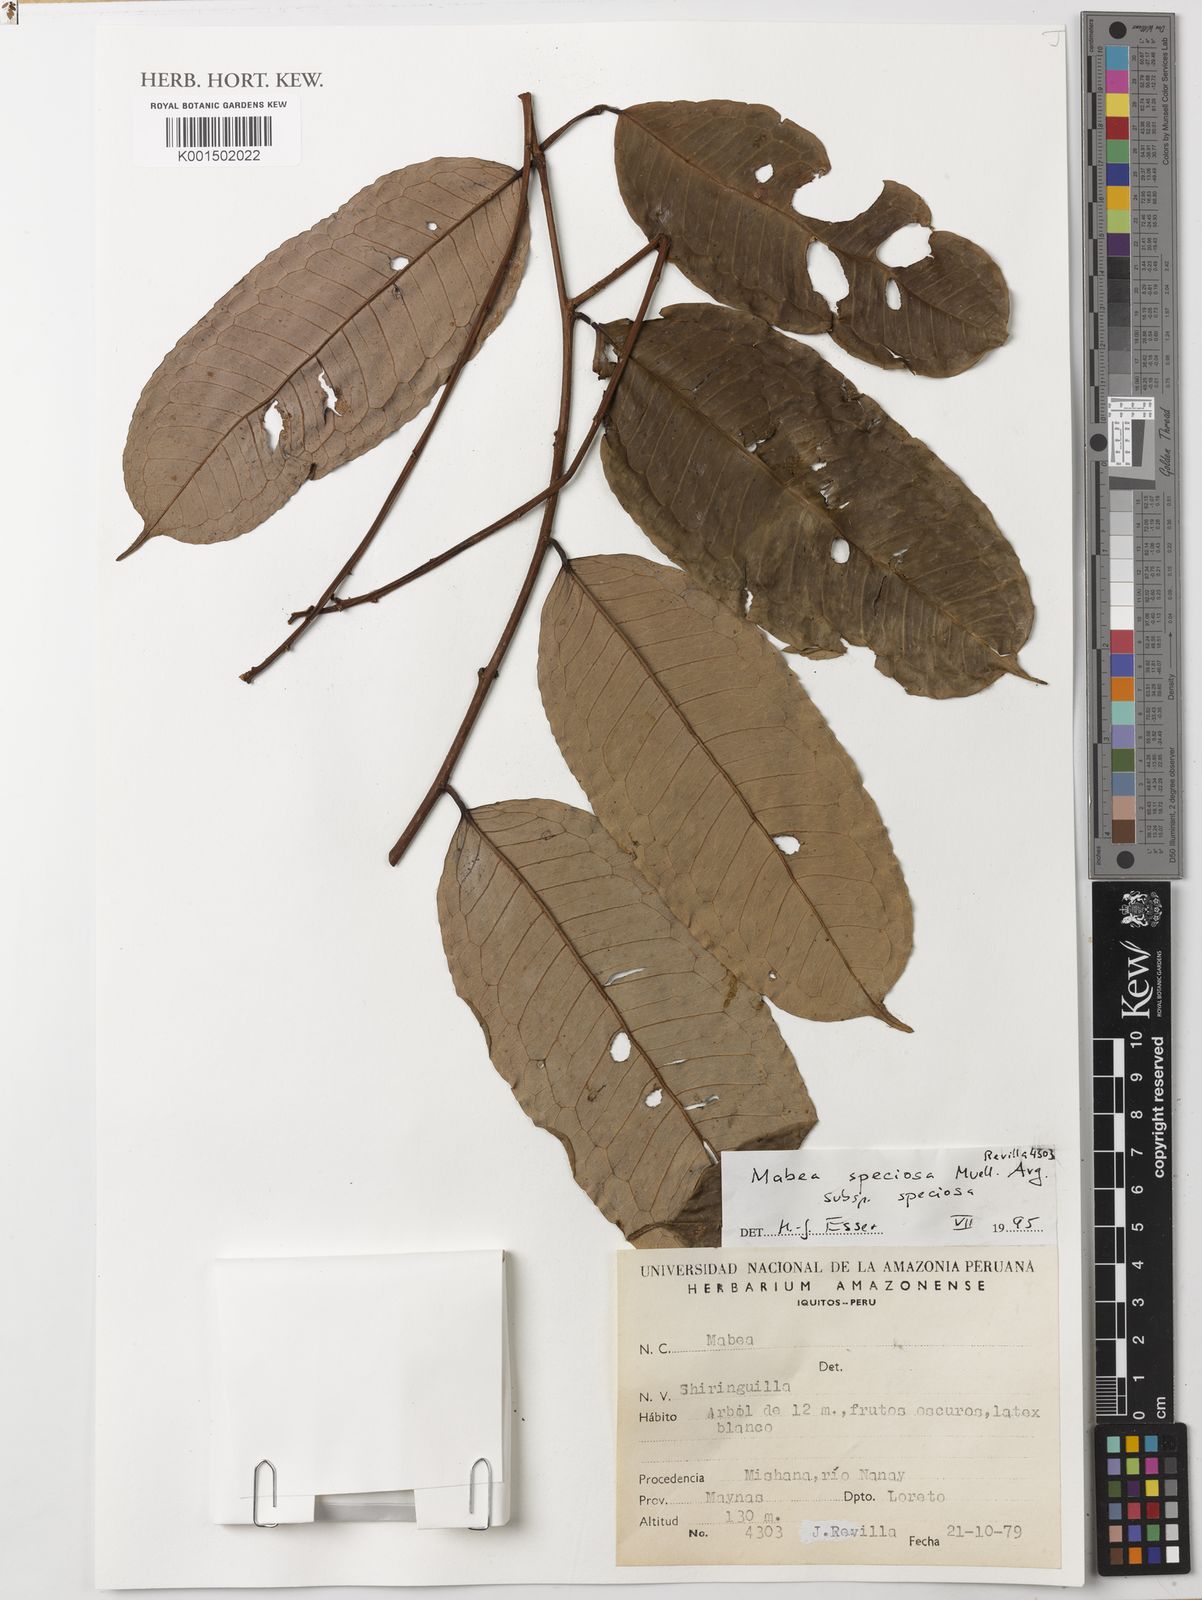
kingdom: Plantae
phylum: Tracheophyta
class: Magnoliopsida
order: Malpighiales
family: Euphorbiaceae
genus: Mabea
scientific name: Mabea speciosa
